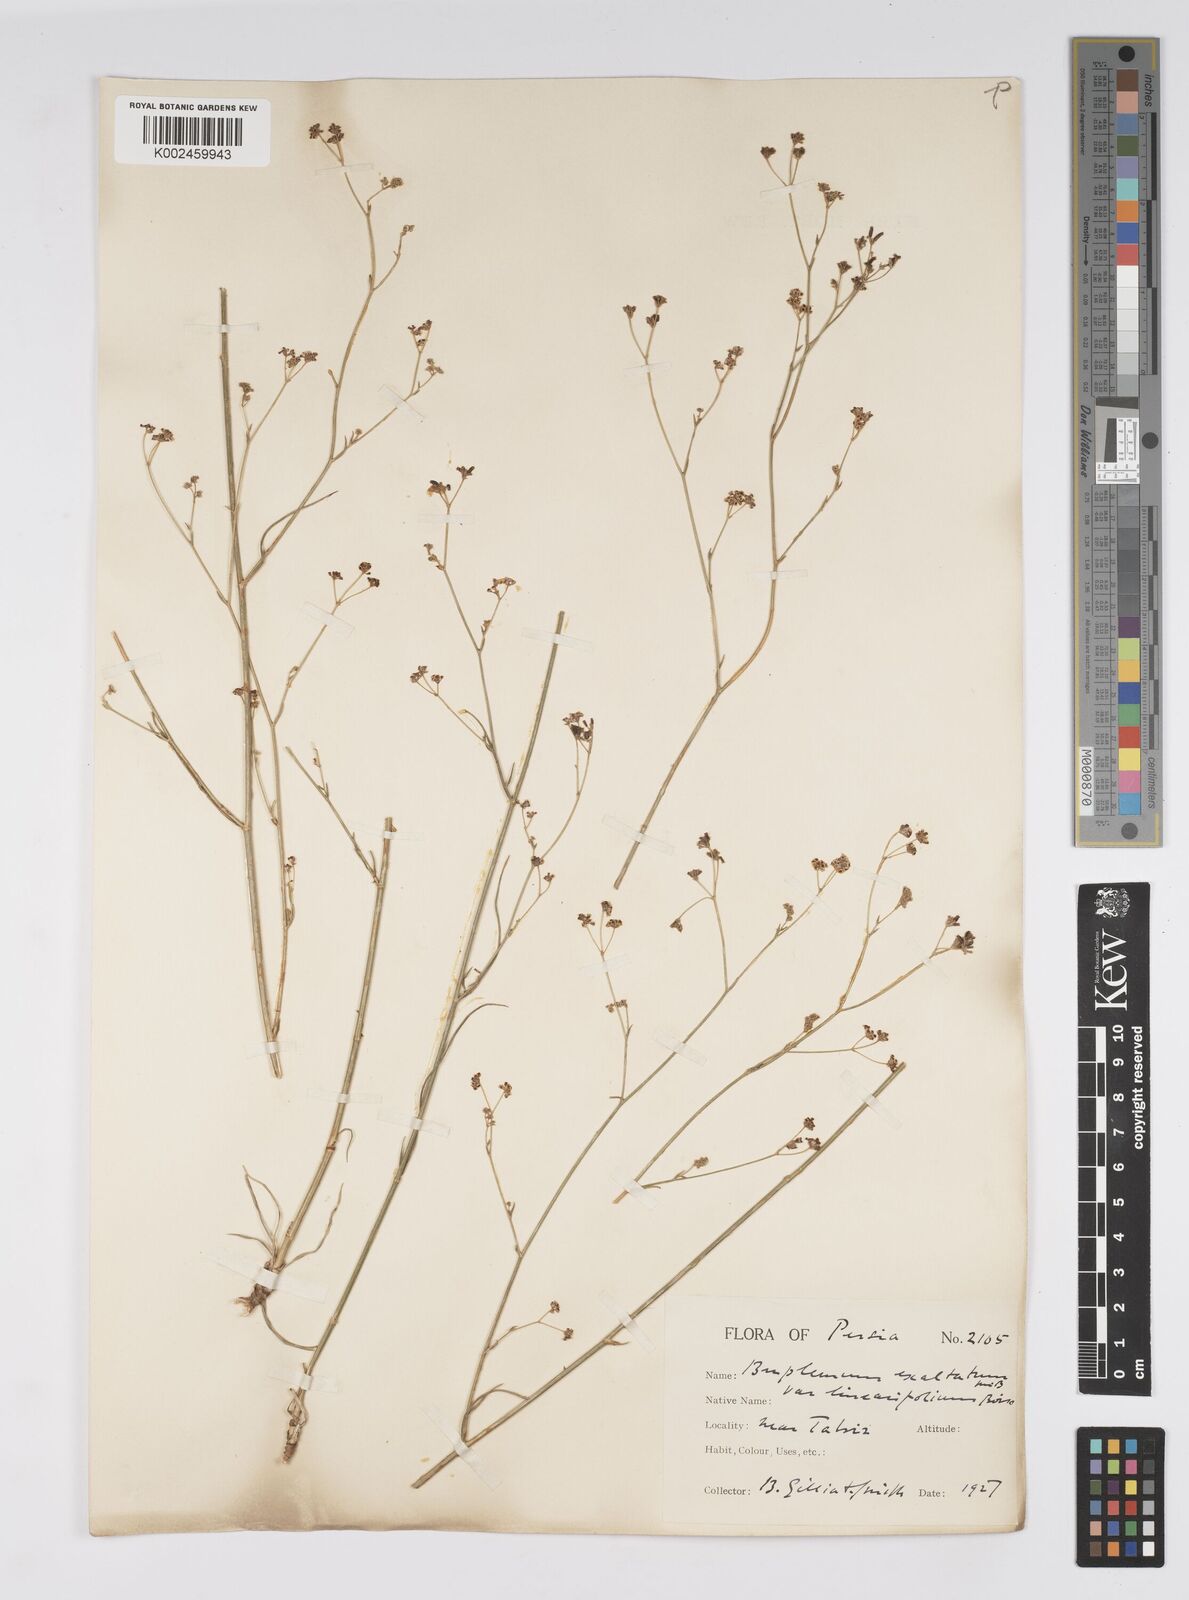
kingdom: Plantae
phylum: Tracheophyta
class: Magnoliopsida
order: Apiales
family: Apiaceae
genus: Bupleurum
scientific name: Bupleurum falcatum
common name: Sickle-leaved hare's-ear
